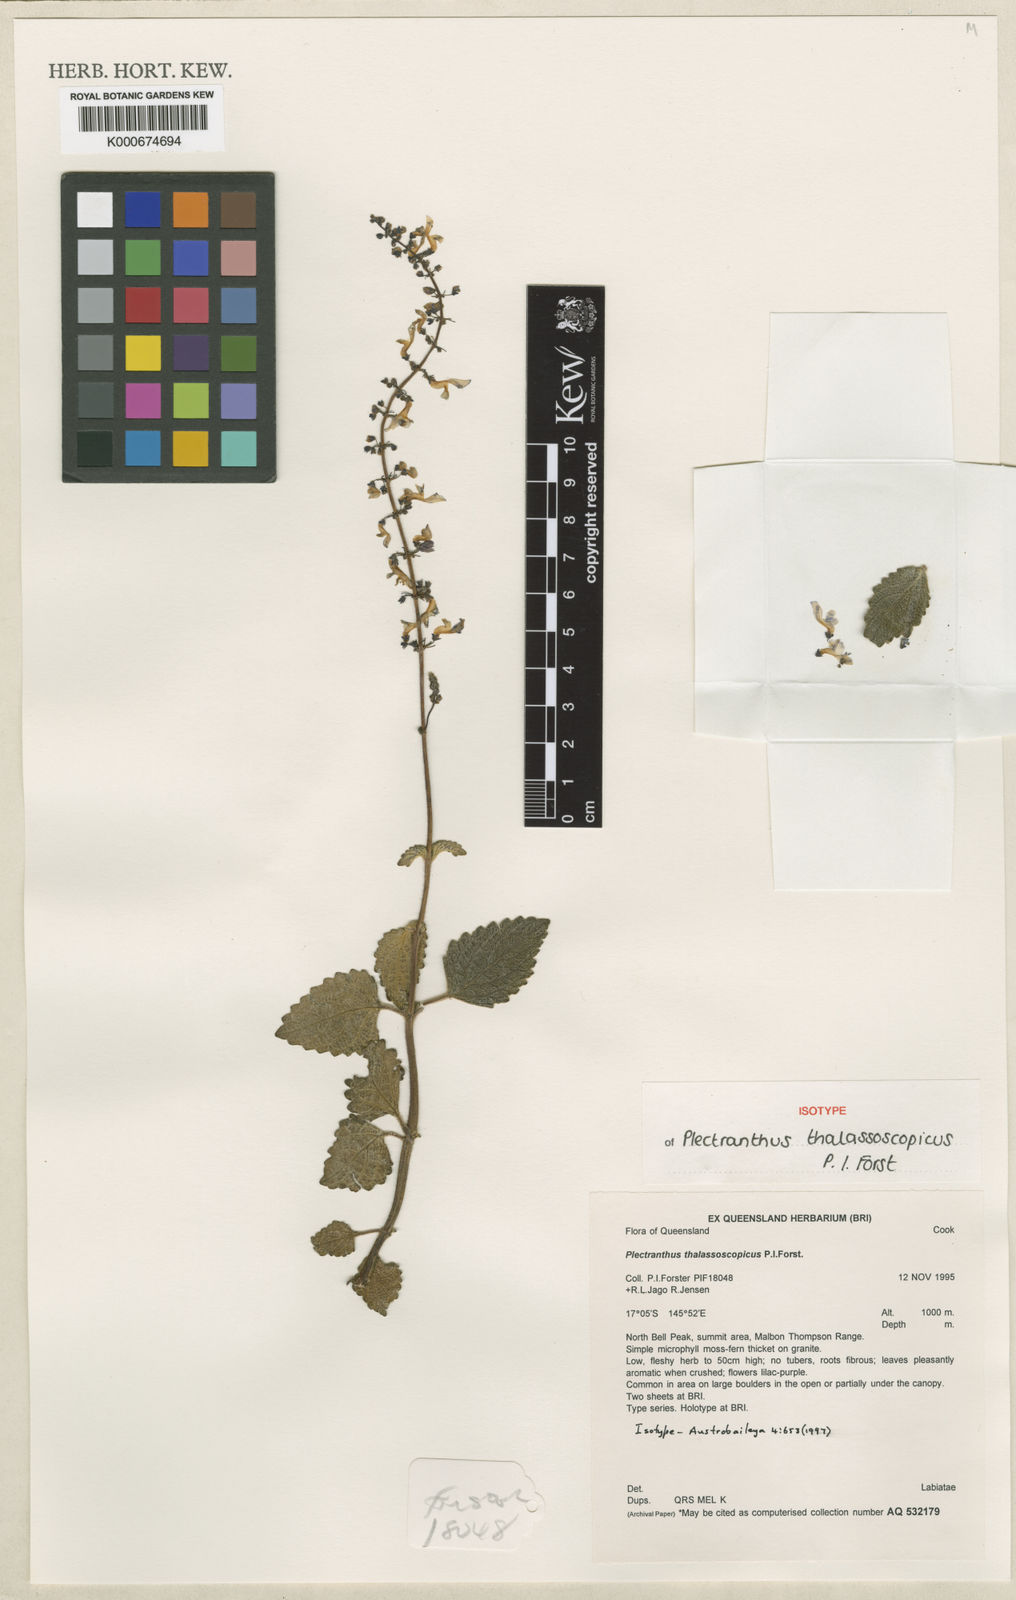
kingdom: Plantae
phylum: Tracheophyta
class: Magnoliopsida
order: Lamiales
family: Lamiaceae
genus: Coleus
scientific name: Coleus thalassoscopicus
